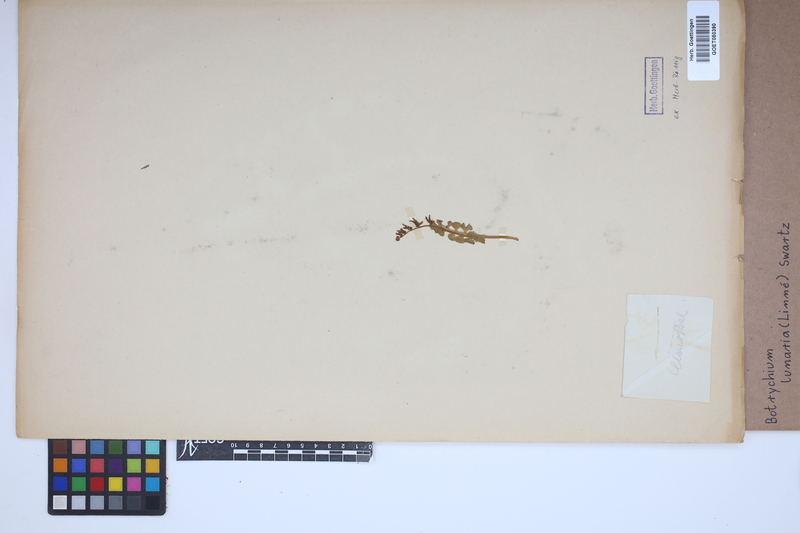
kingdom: Plantae
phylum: Tracheophyta
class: Polypodiopsida
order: Ophioglossales
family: Ophioglossaceae
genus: Botrychium
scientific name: Botrychium lunaria
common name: Moonwort
